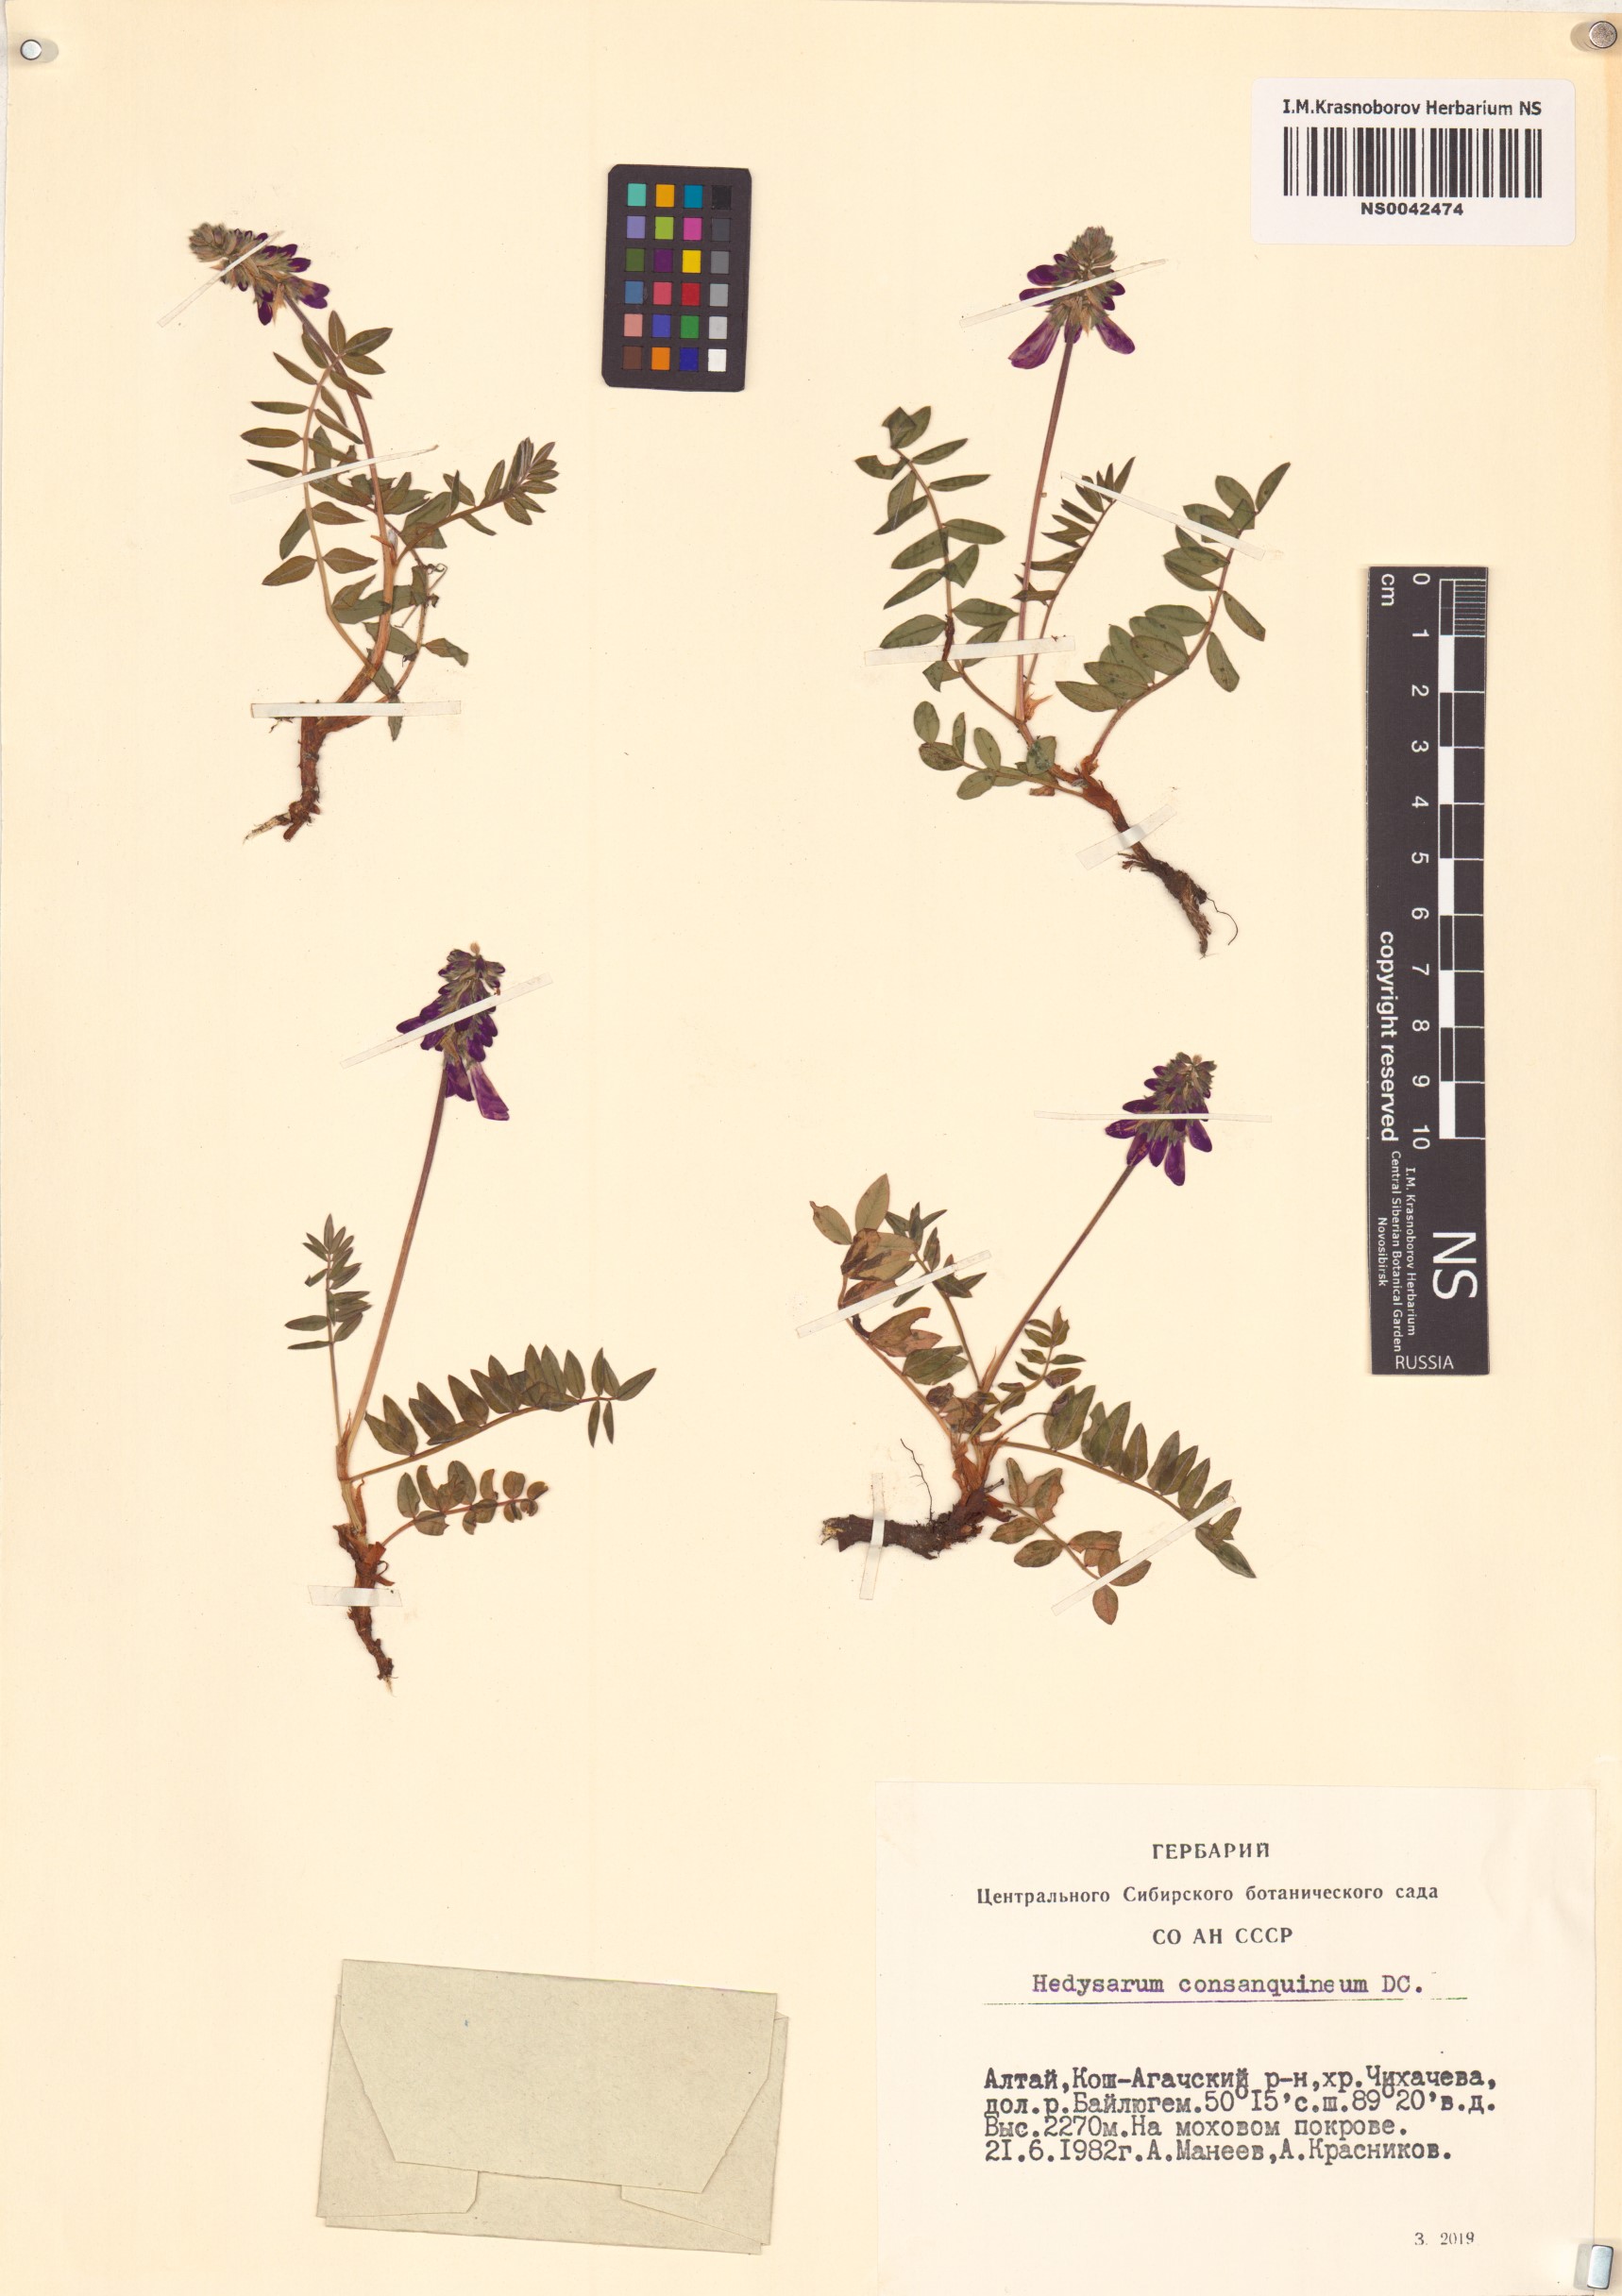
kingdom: Plantae
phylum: Tracheophyta
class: Magnoliopsida
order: Fabales
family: Fabaceae
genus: Hedysarum
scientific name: Hedysarum consanguineum
